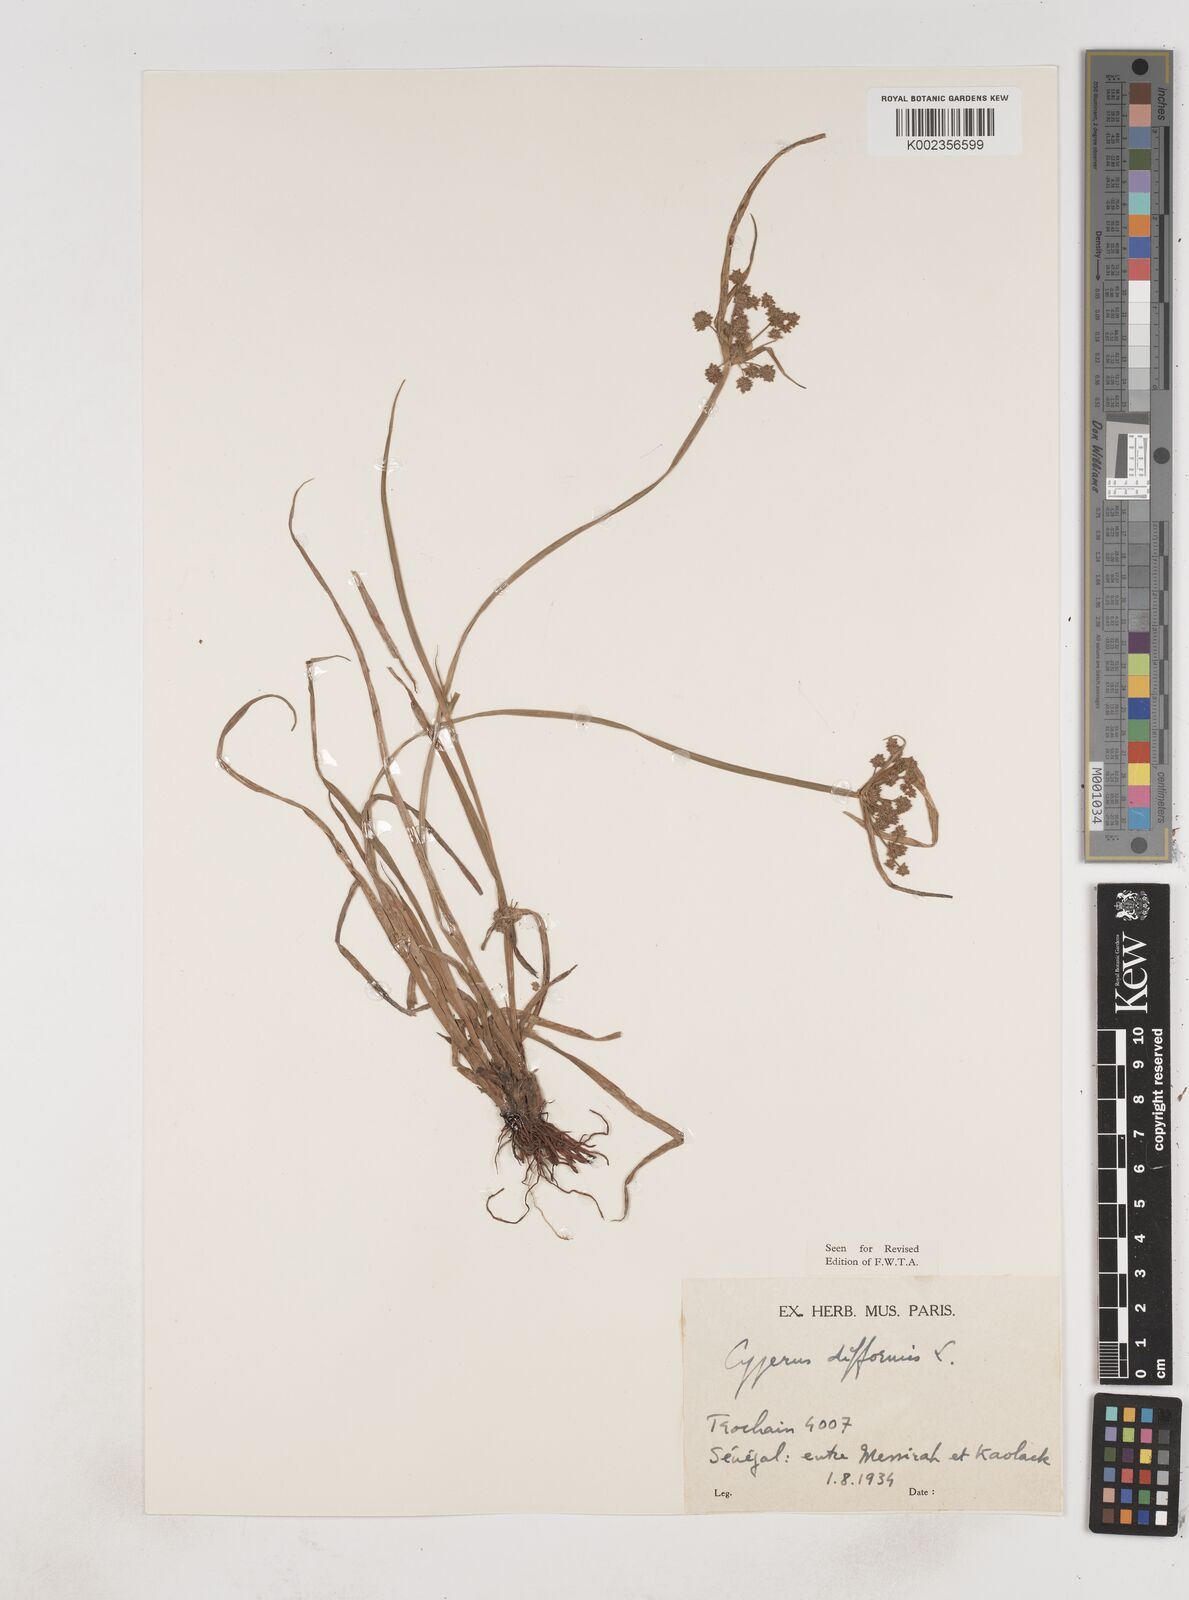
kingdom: Plantae
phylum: Tracheophyta
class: Liliopsida
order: Poales
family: Cyperaceae
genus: Cyperus
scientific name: Cyperus difformis
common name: Variable flatsedge
